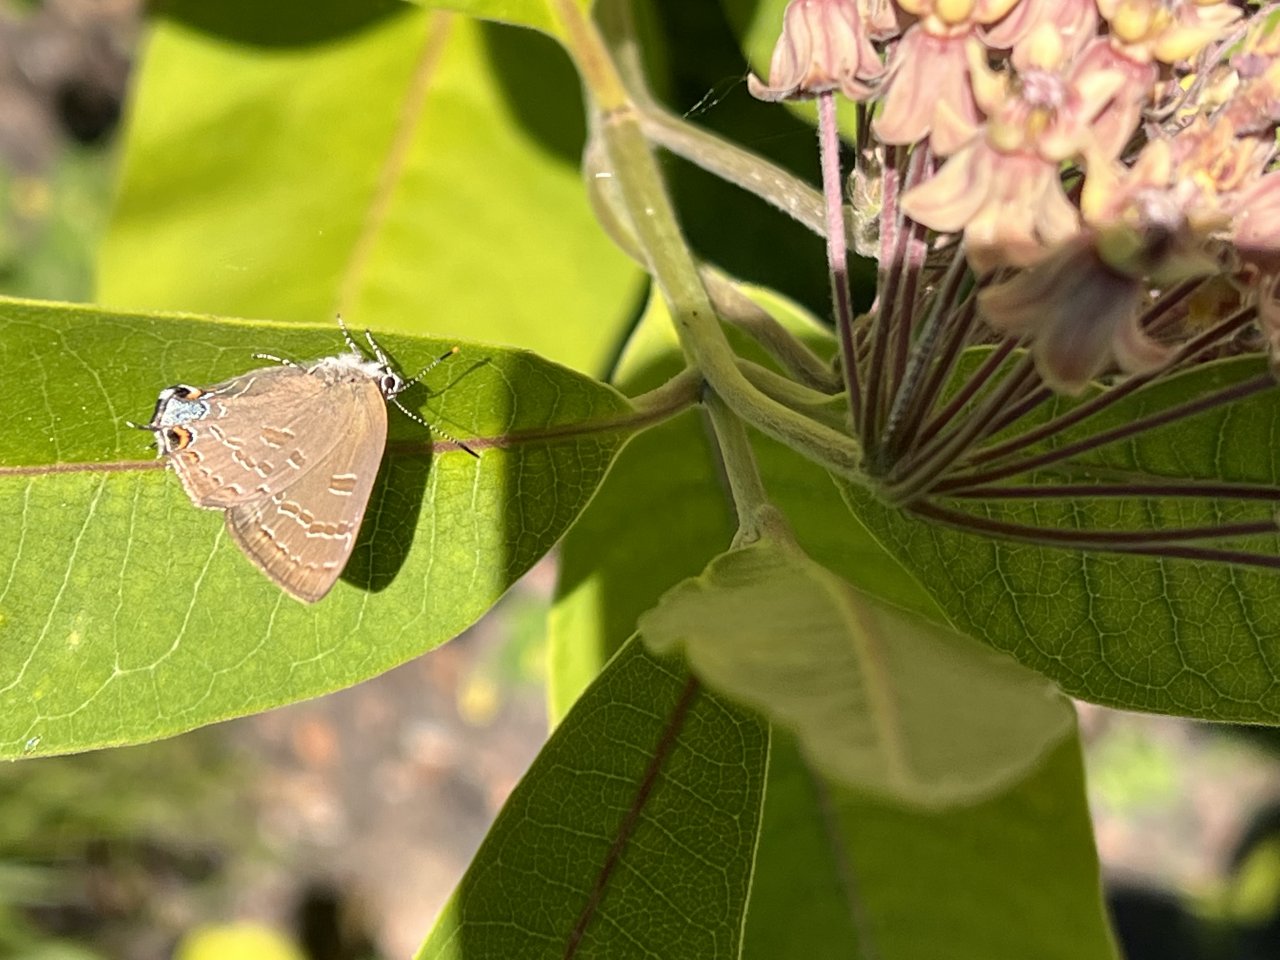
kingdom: Animalia
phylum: Arthropoda
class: Insecta
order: Lepidoptera
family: Lycaenidae
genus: Strymon
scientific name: Strymon caryaevorus
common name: Hickory Hairstreak
